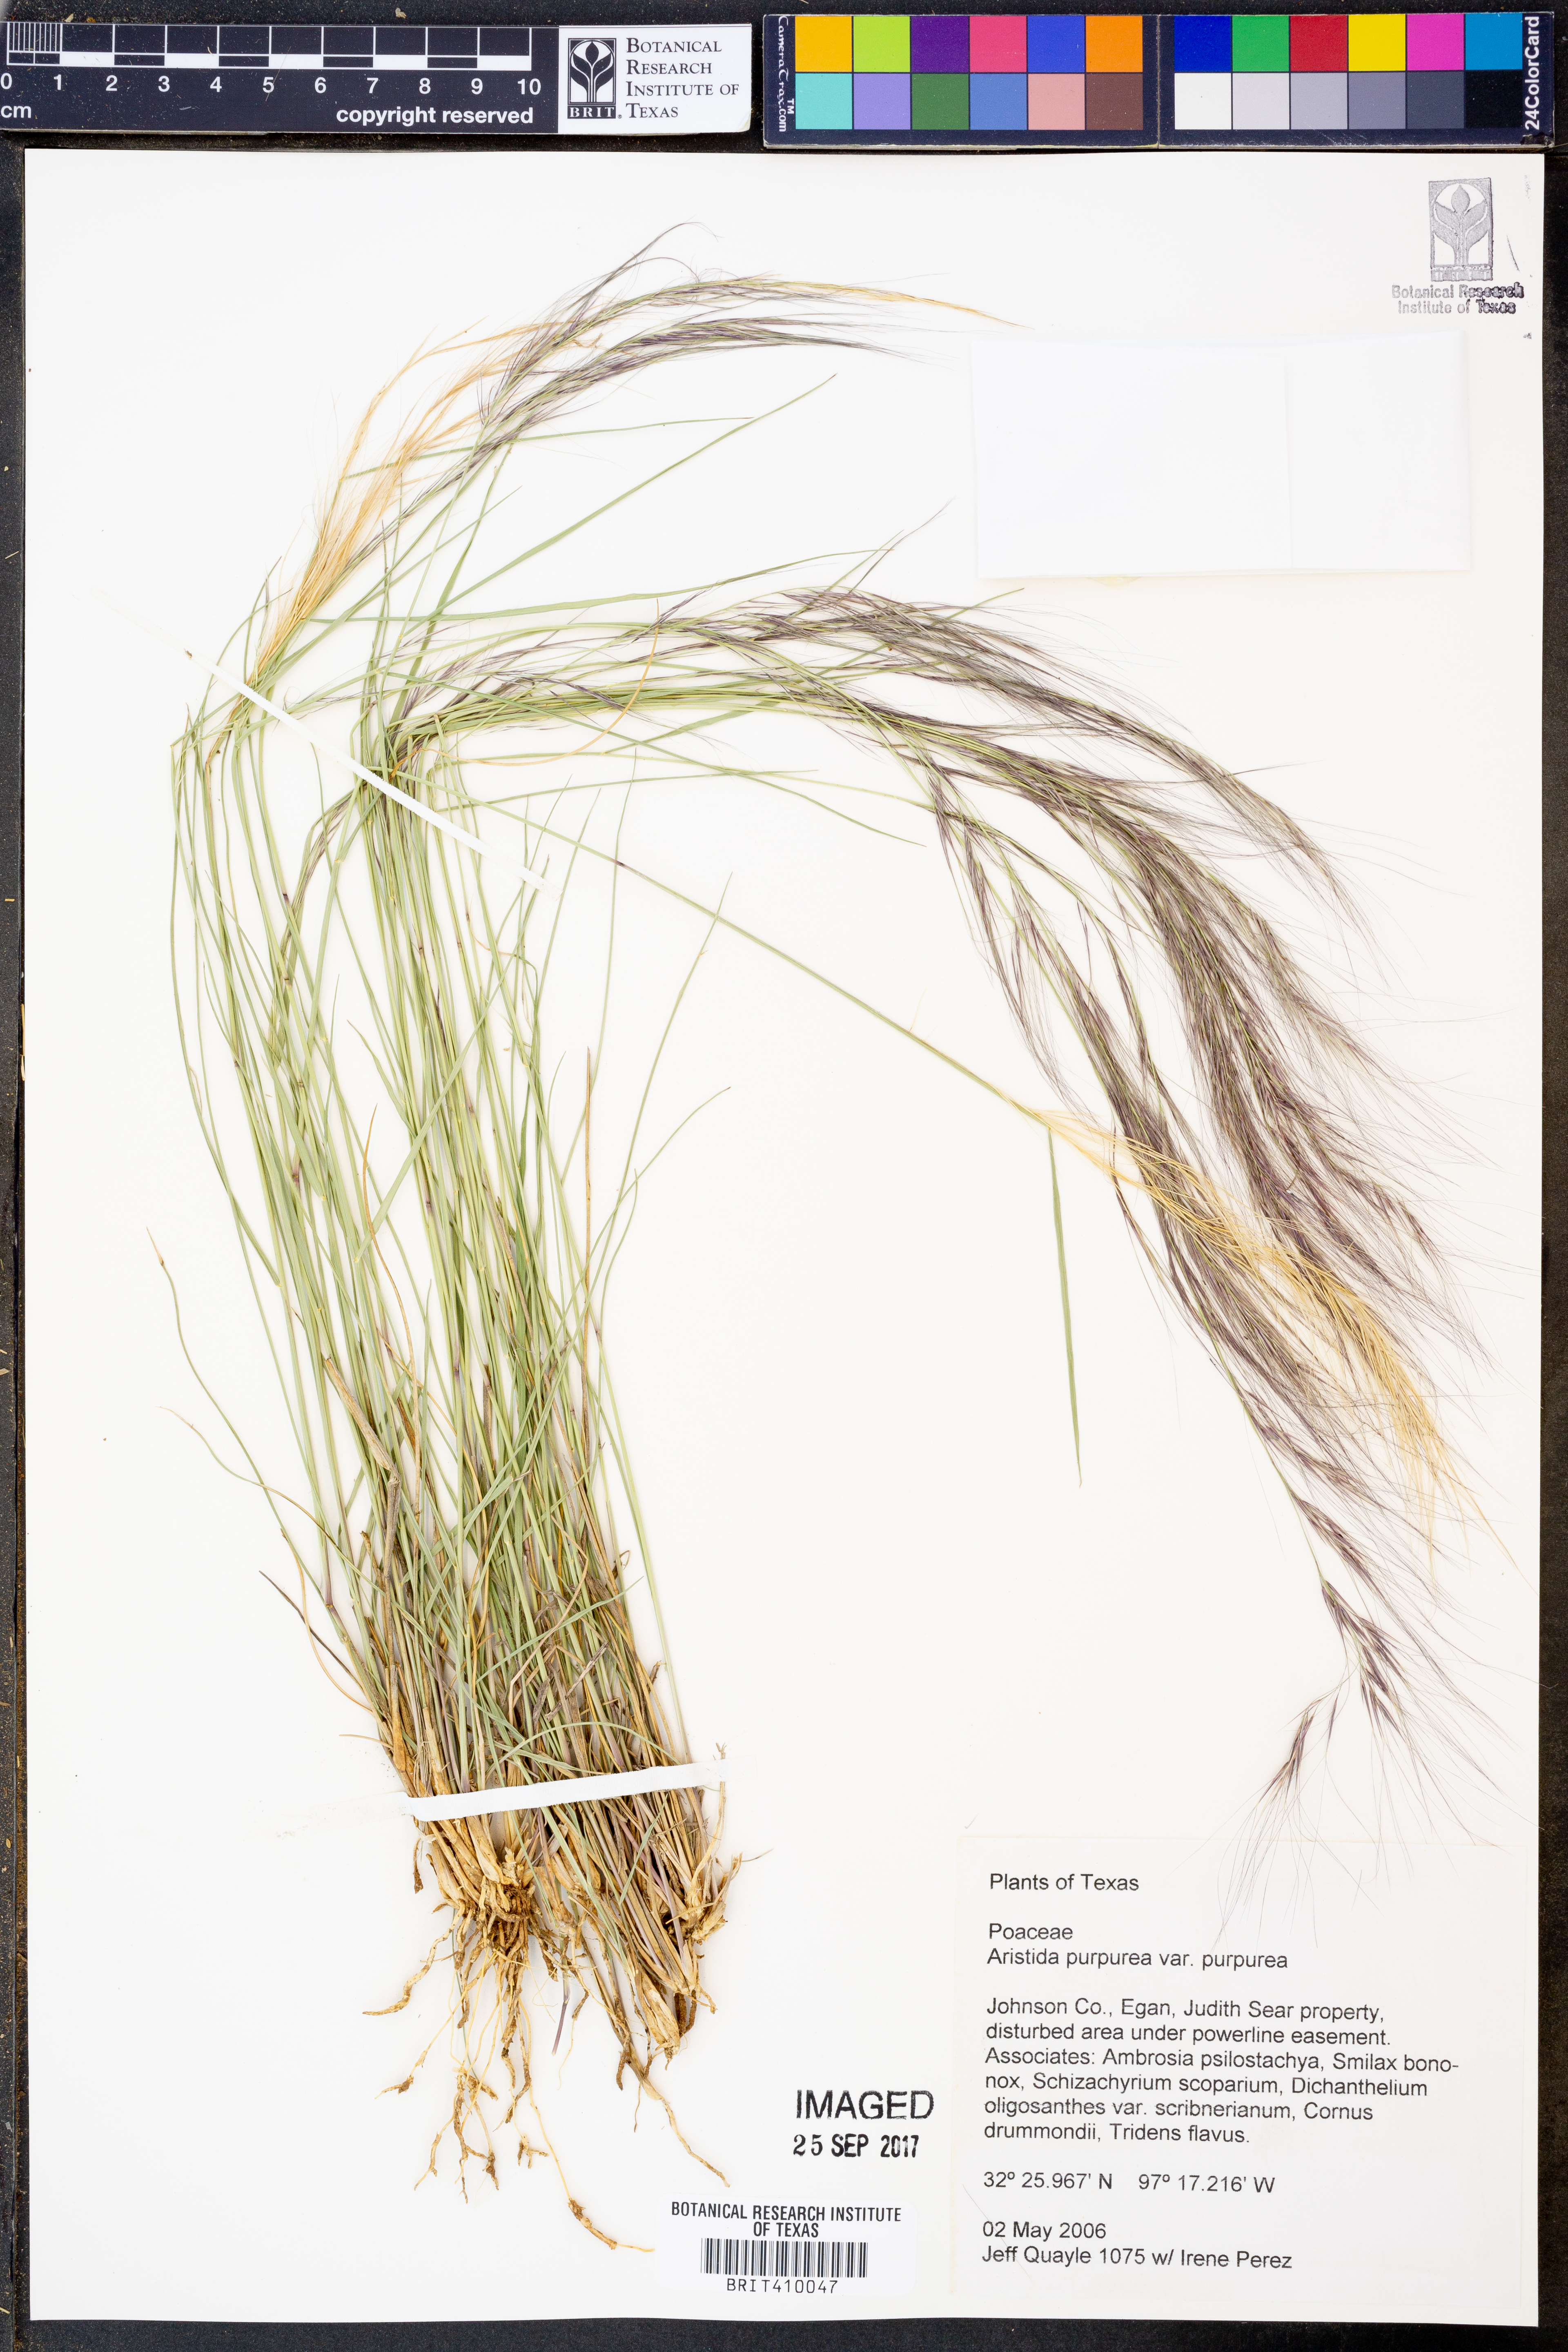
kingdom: Plantae
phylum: Tracheophyta
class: Liliopsida
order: Poales
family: Poaceae
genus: Aristida
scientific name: Aristida purpurea
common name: Purple threeawn
